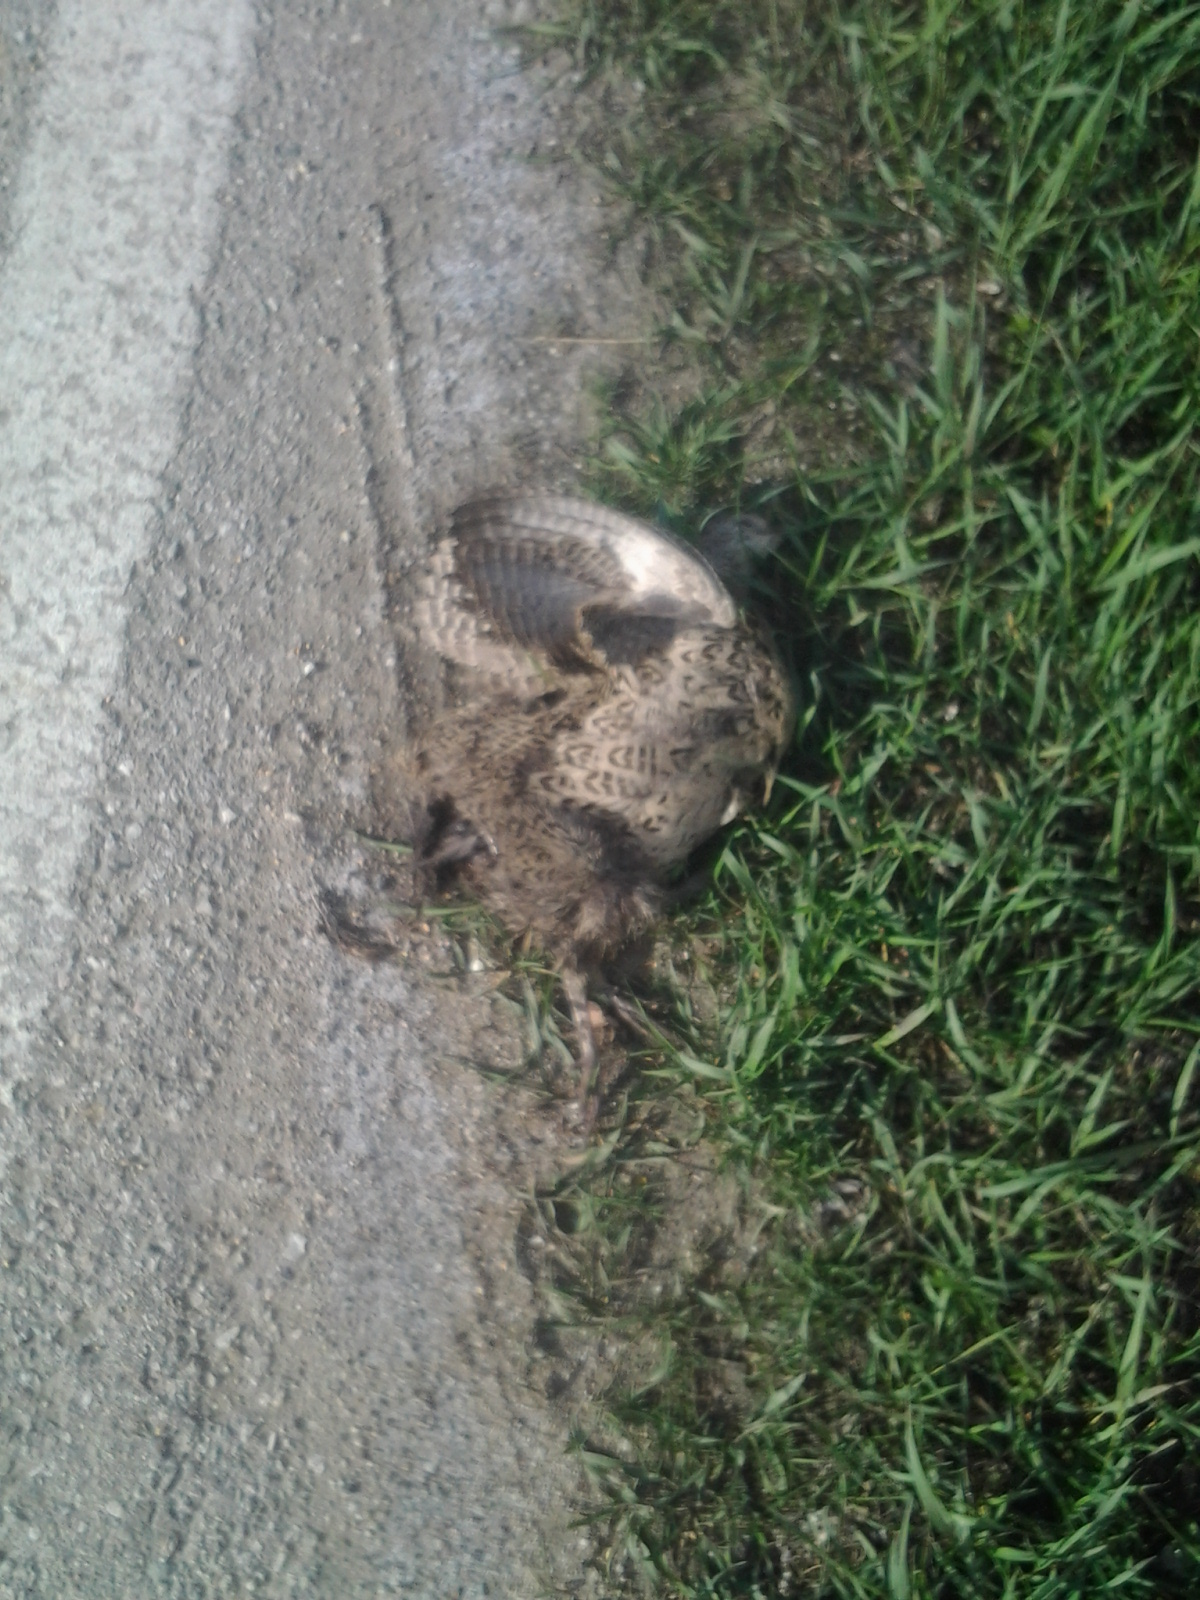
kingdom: Animalia
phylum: Chordata
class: Aves
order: Galliformes
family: Phasianidae
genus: Phasianus
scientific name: Phasianus colchicus
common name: Common pheasant
